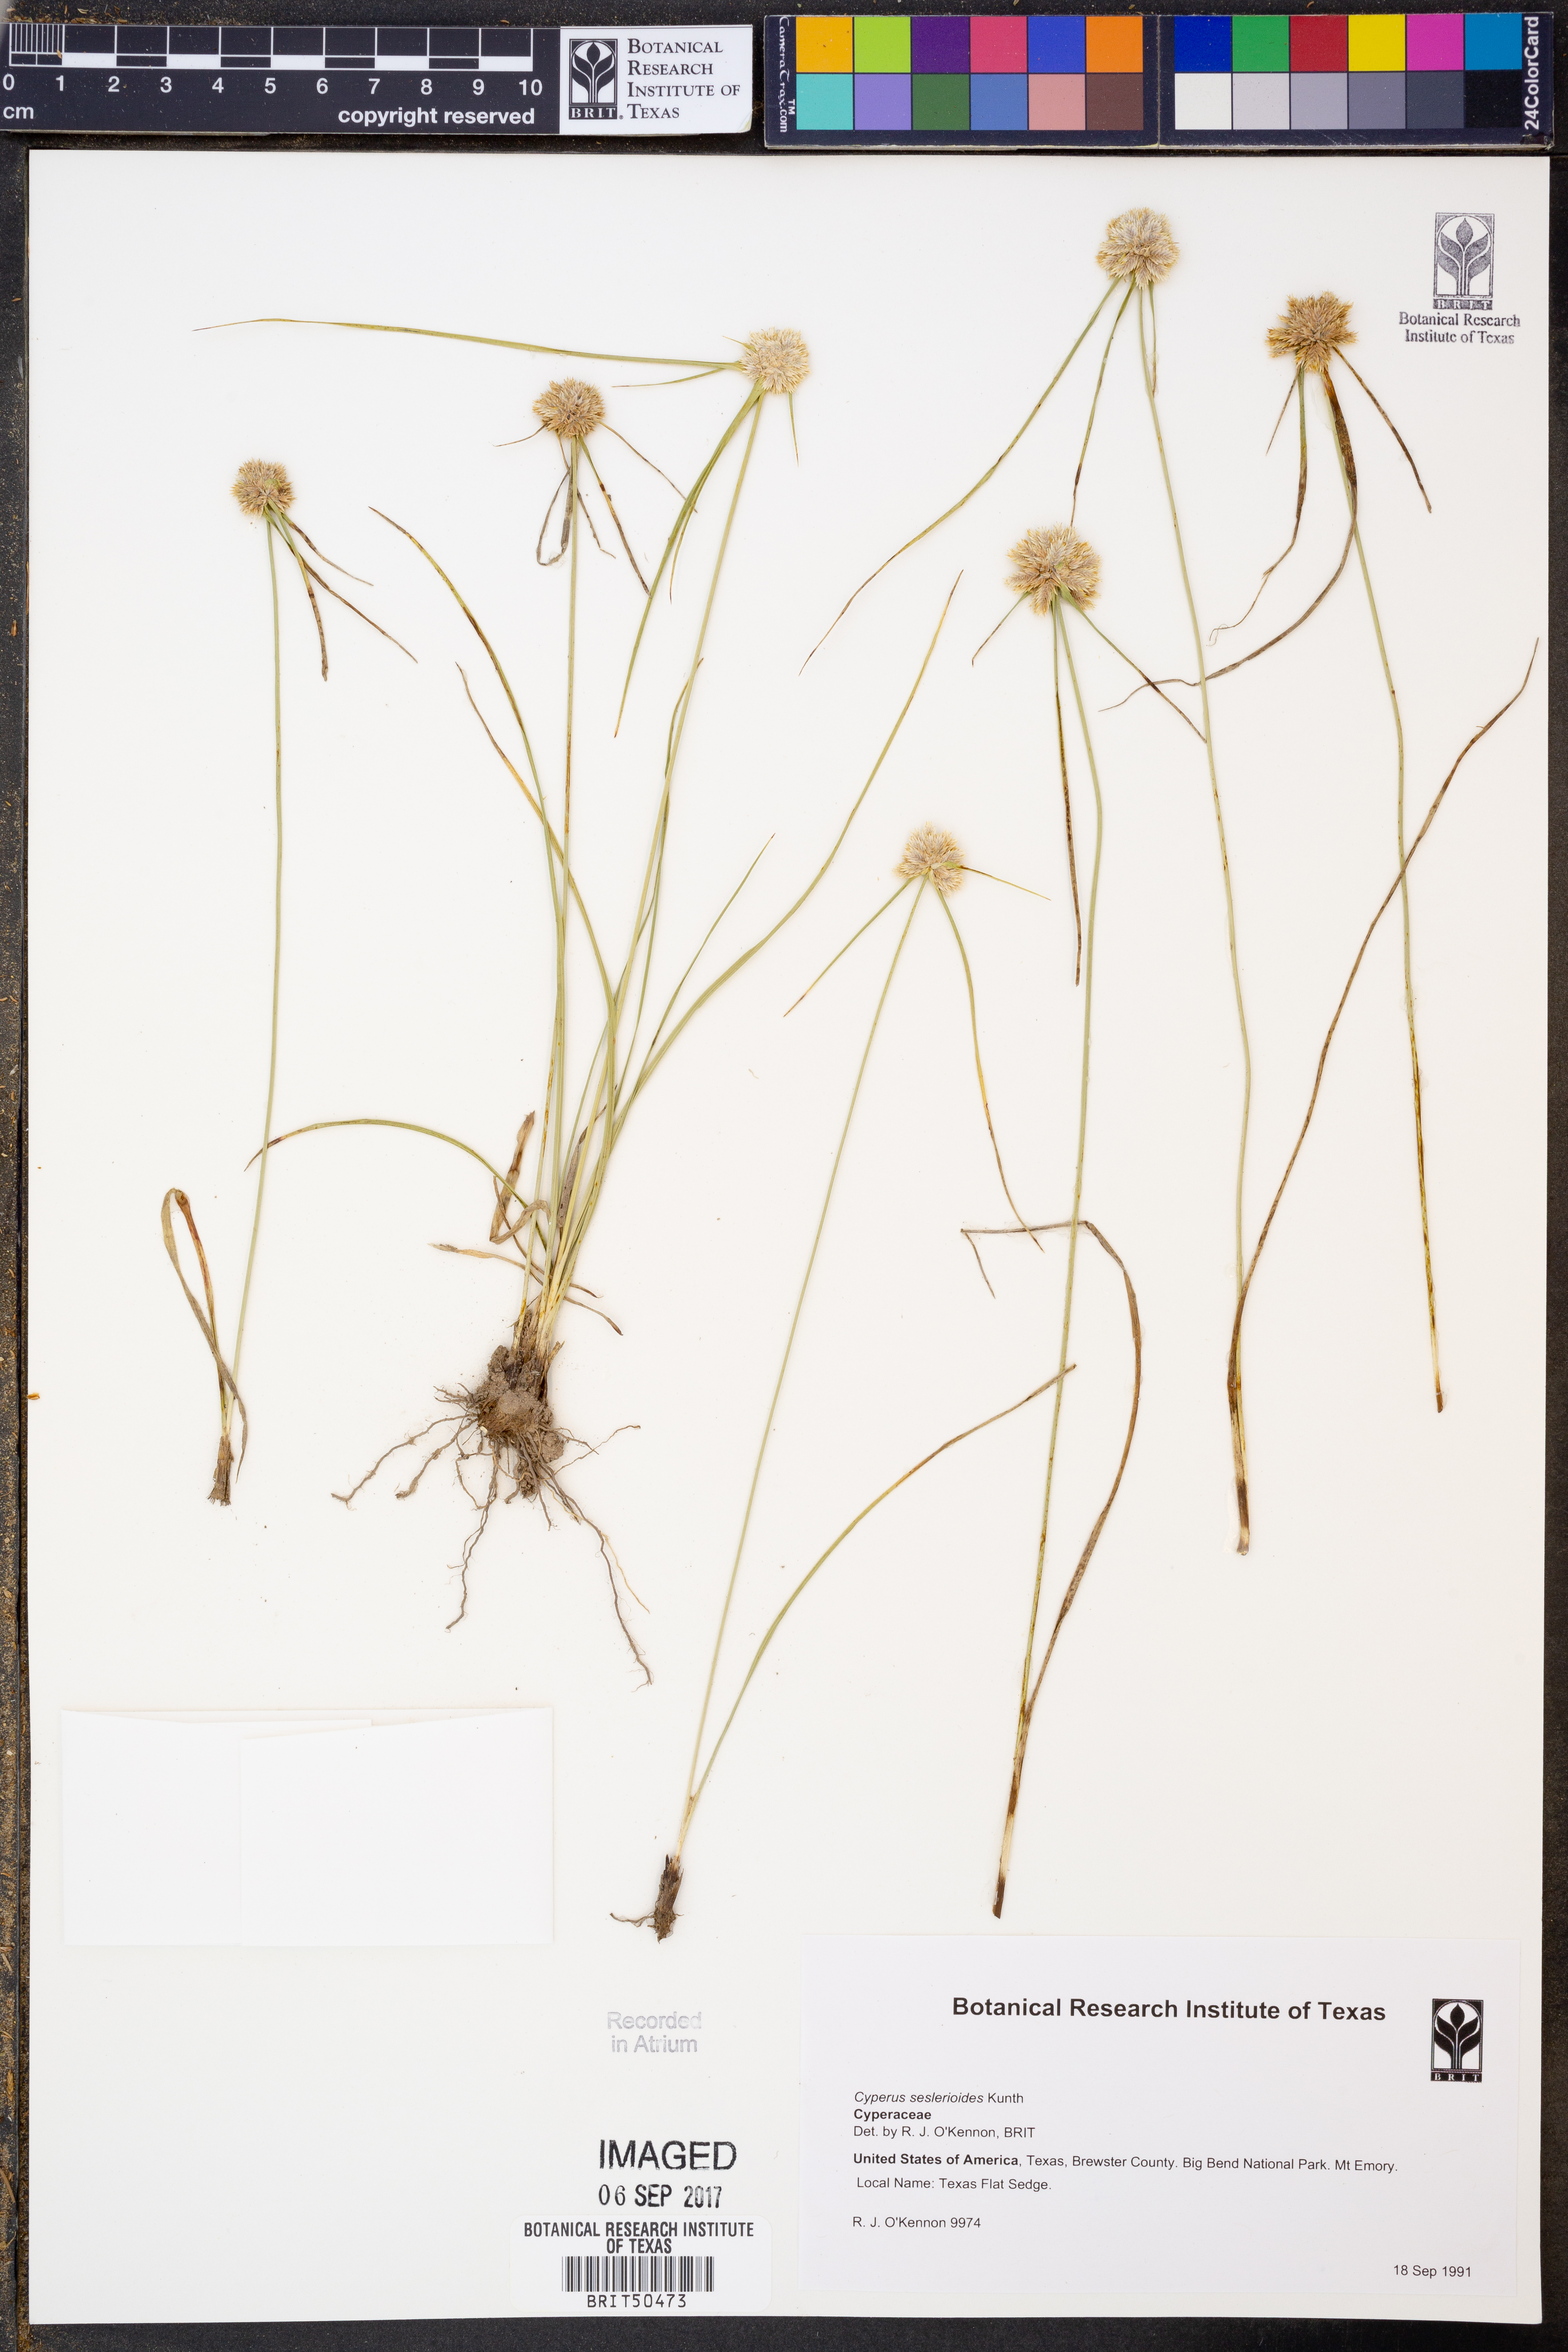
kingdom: Plantae
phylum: Tracheophyta
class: Liliopsida
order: Poales
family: Cyperaceae
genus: Cyperus
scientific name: Cyperus seslerioides
